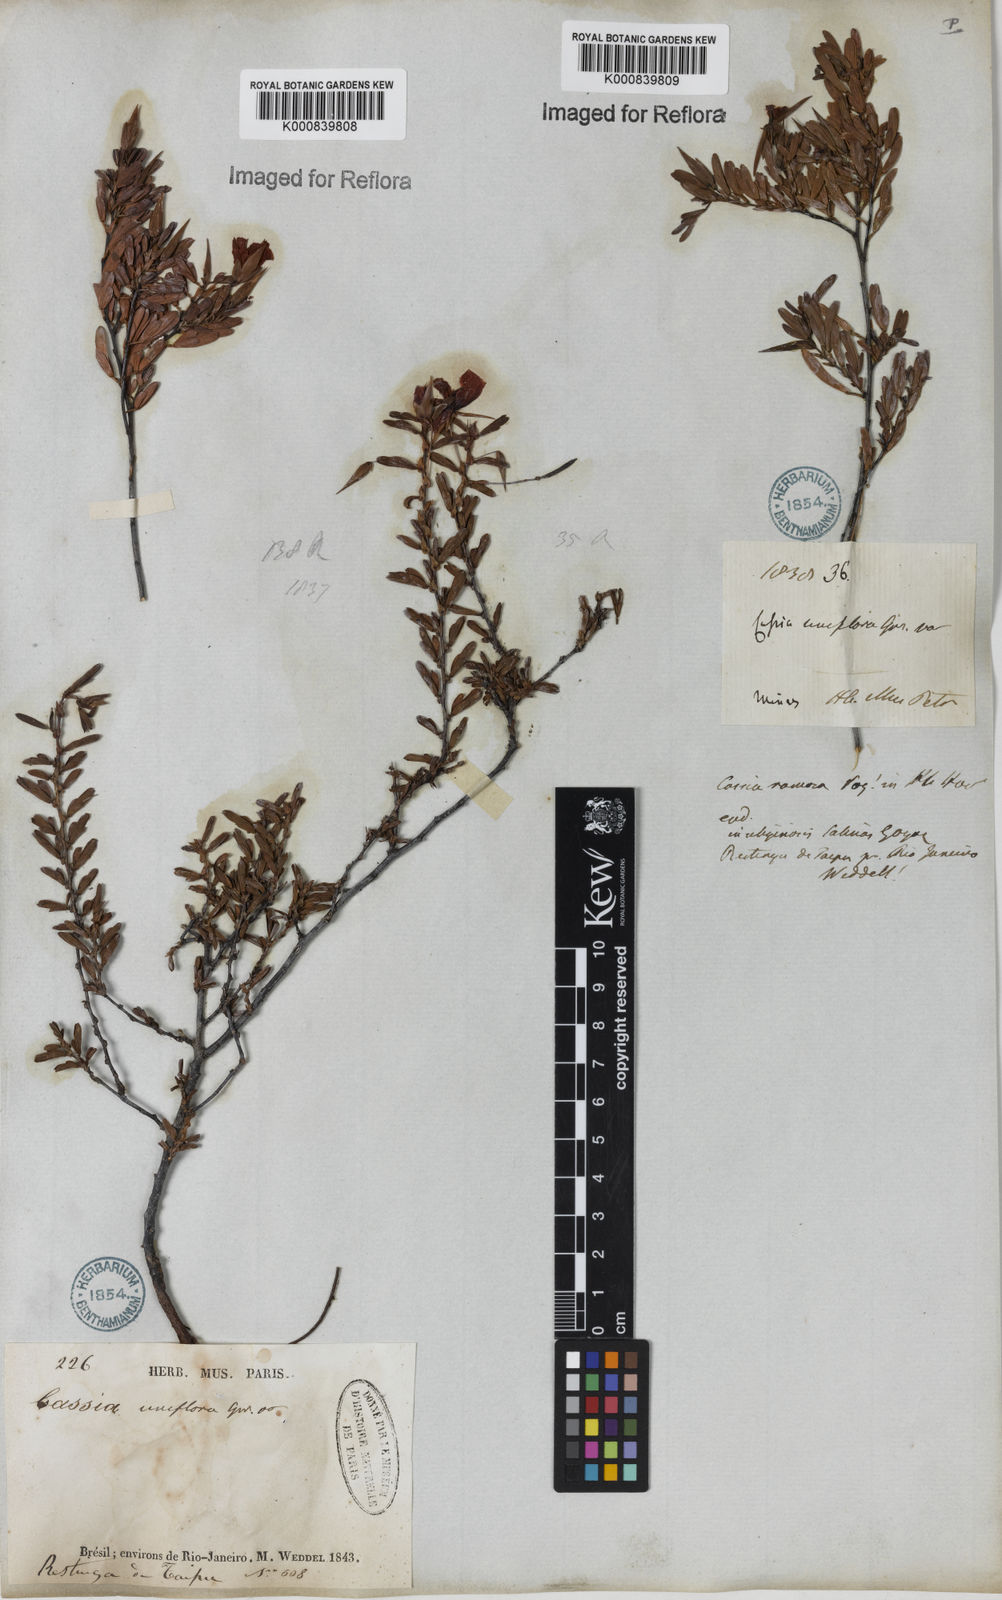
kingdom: Plantae
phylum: Tracheophyta
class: Magnoliopsida
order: Fabales
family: Fabaceae
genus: Chamaecrista
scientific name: Chamaecrista ramosa
